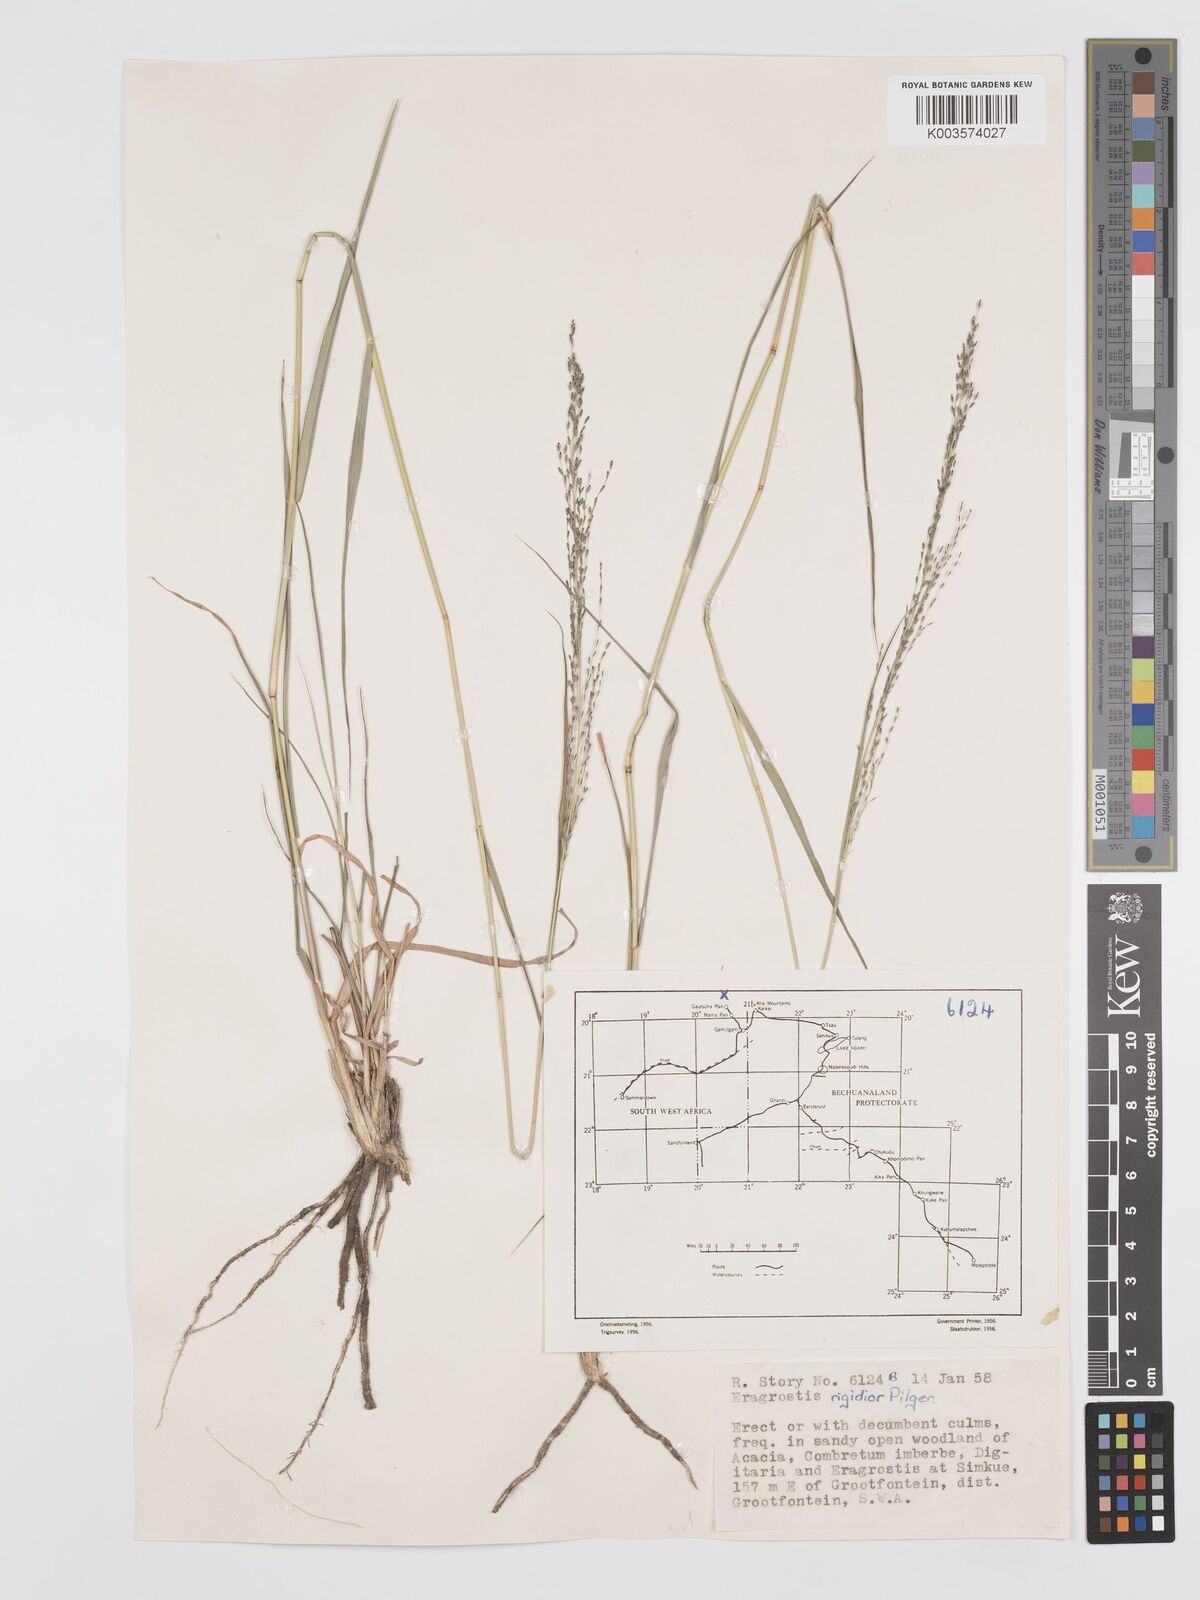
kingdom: Plantae
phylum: Tracheophyta
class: Liliopsida
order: Poales
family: Poaceae
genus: Eragrostis
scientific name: Eragrostis cylindriflora
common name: Cylinderflower lovegrass
